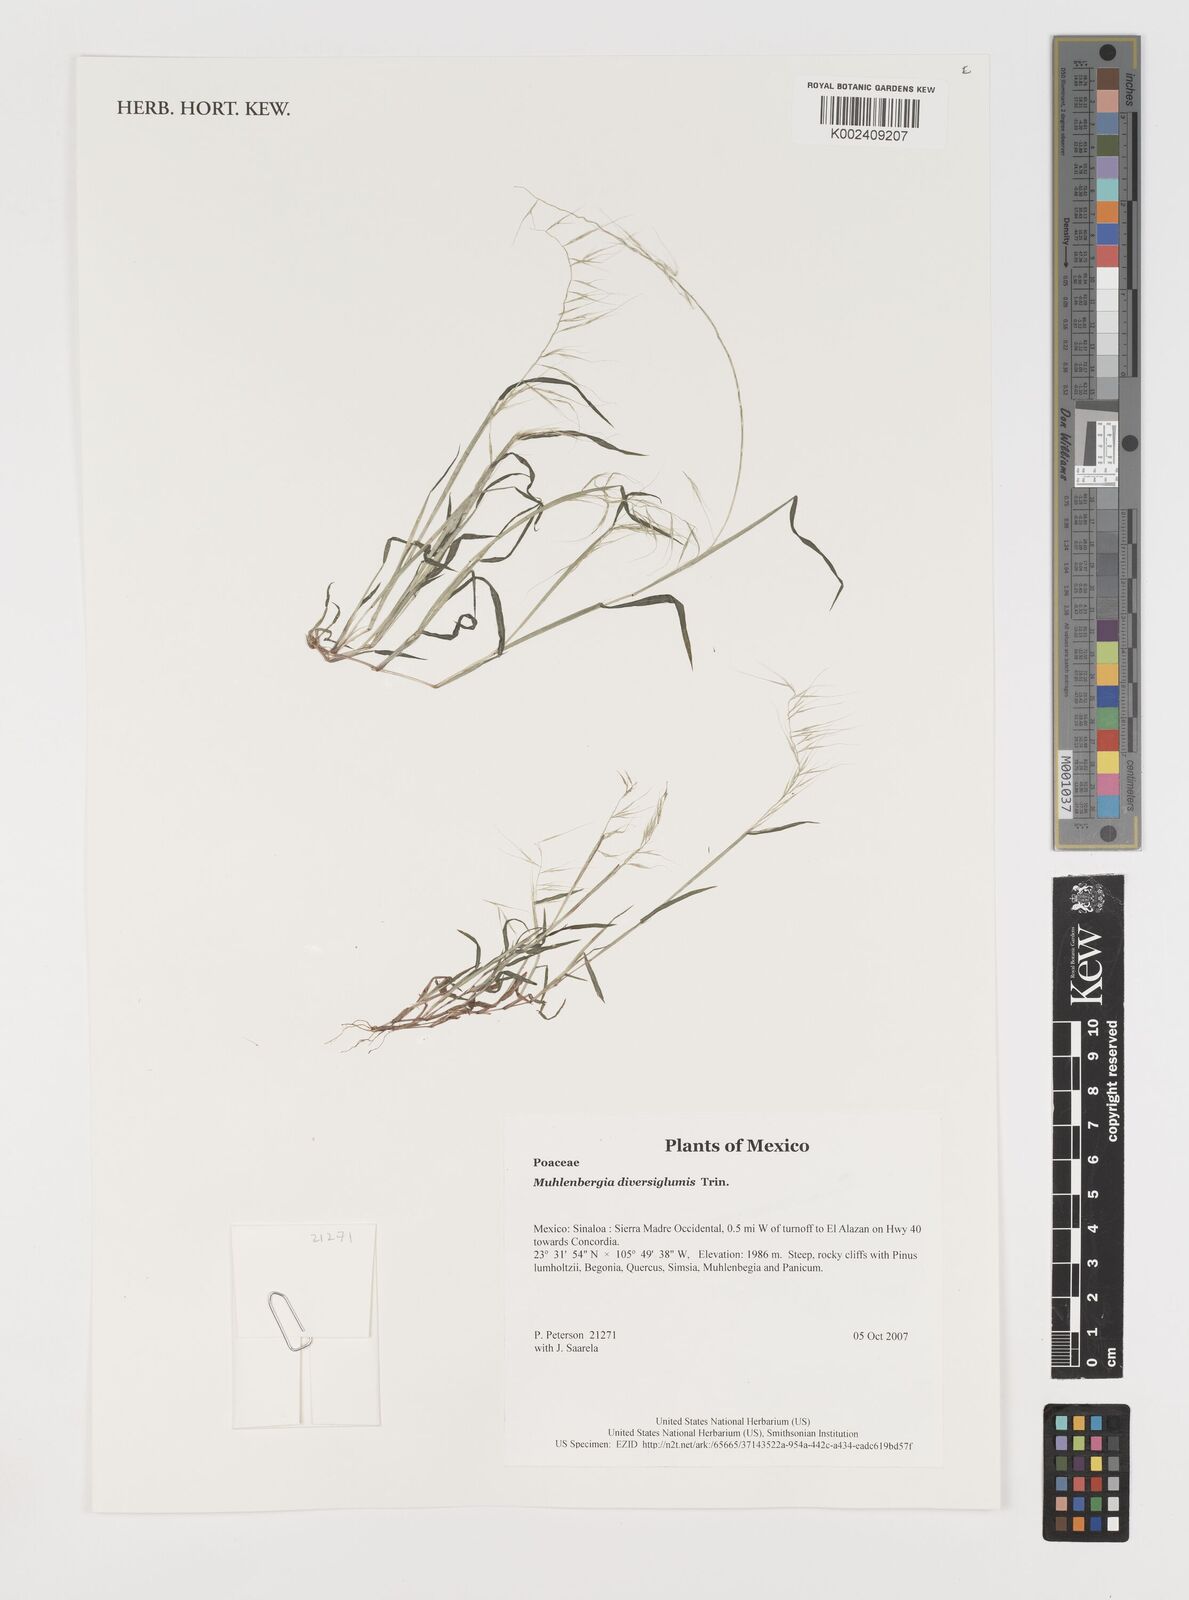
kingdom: Plantae
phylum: Tracheophyta
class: Liliopsida
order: Poales
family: Poaceae
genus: Muhlenbergia
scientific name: Muhlenbergia diversiglumis
